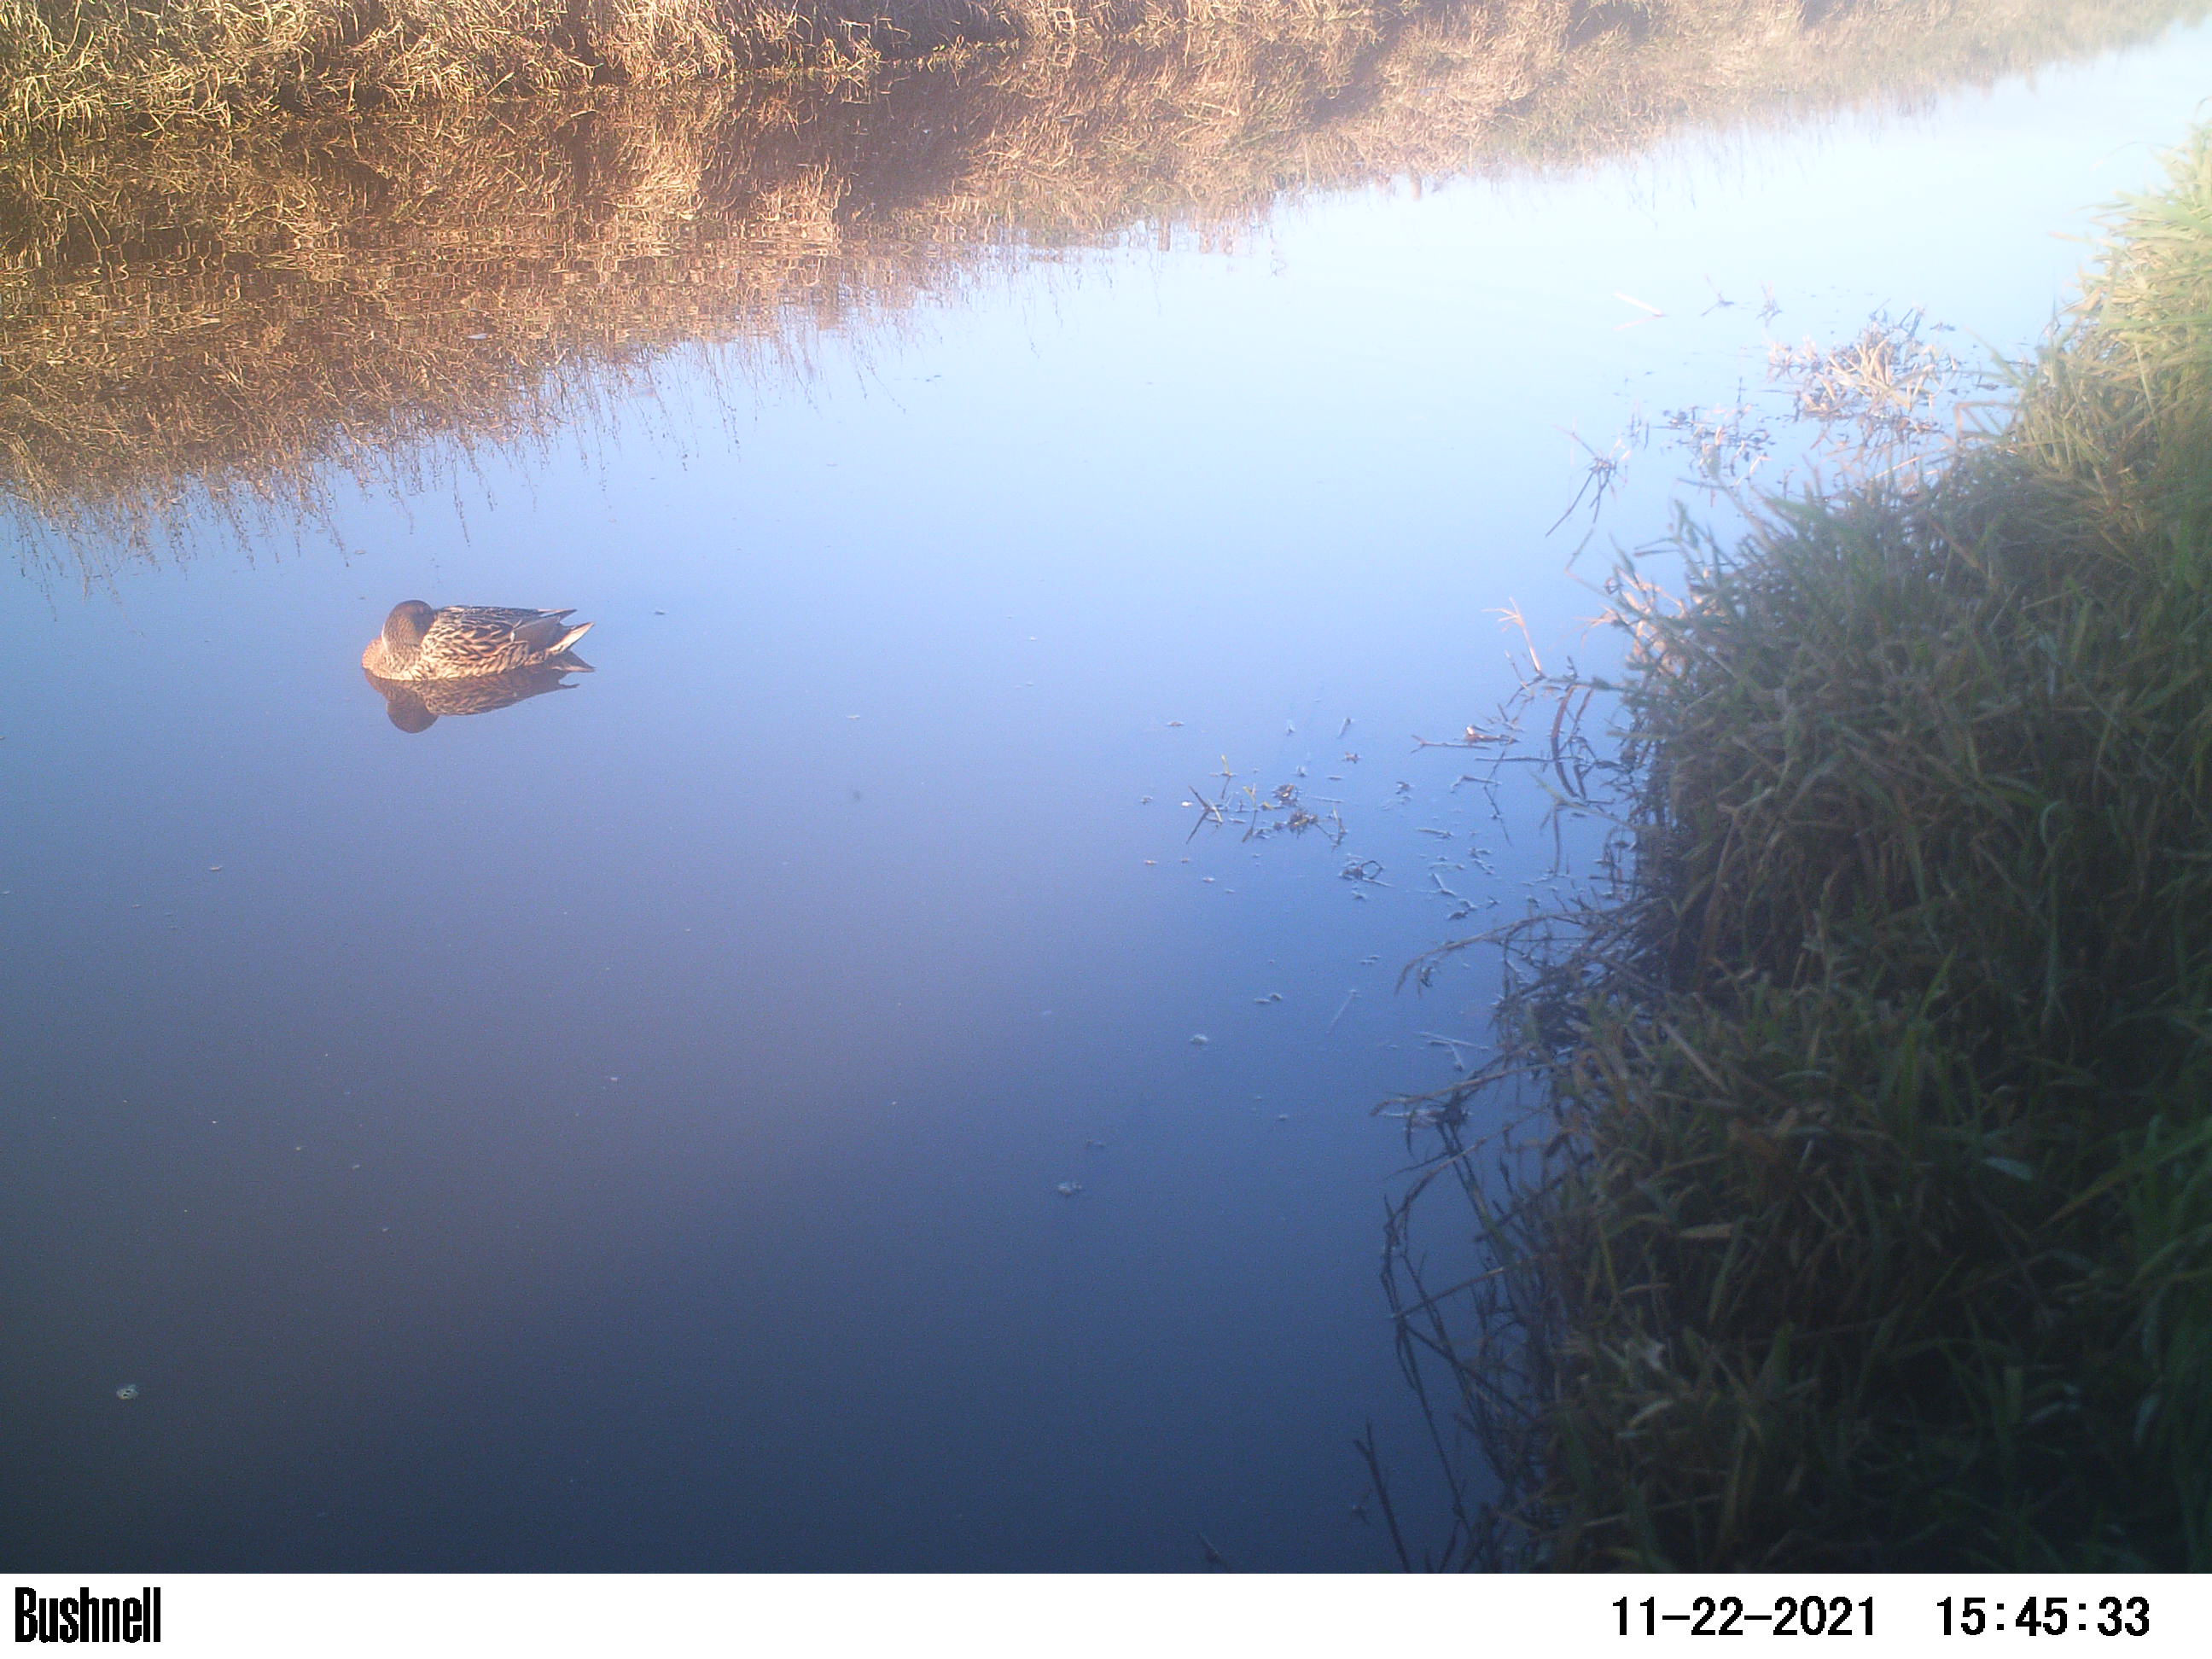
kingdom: Animalia
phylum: Chordata
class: Aves
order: Anseriformes
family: Anatidae
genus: Anas
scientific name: Anas
